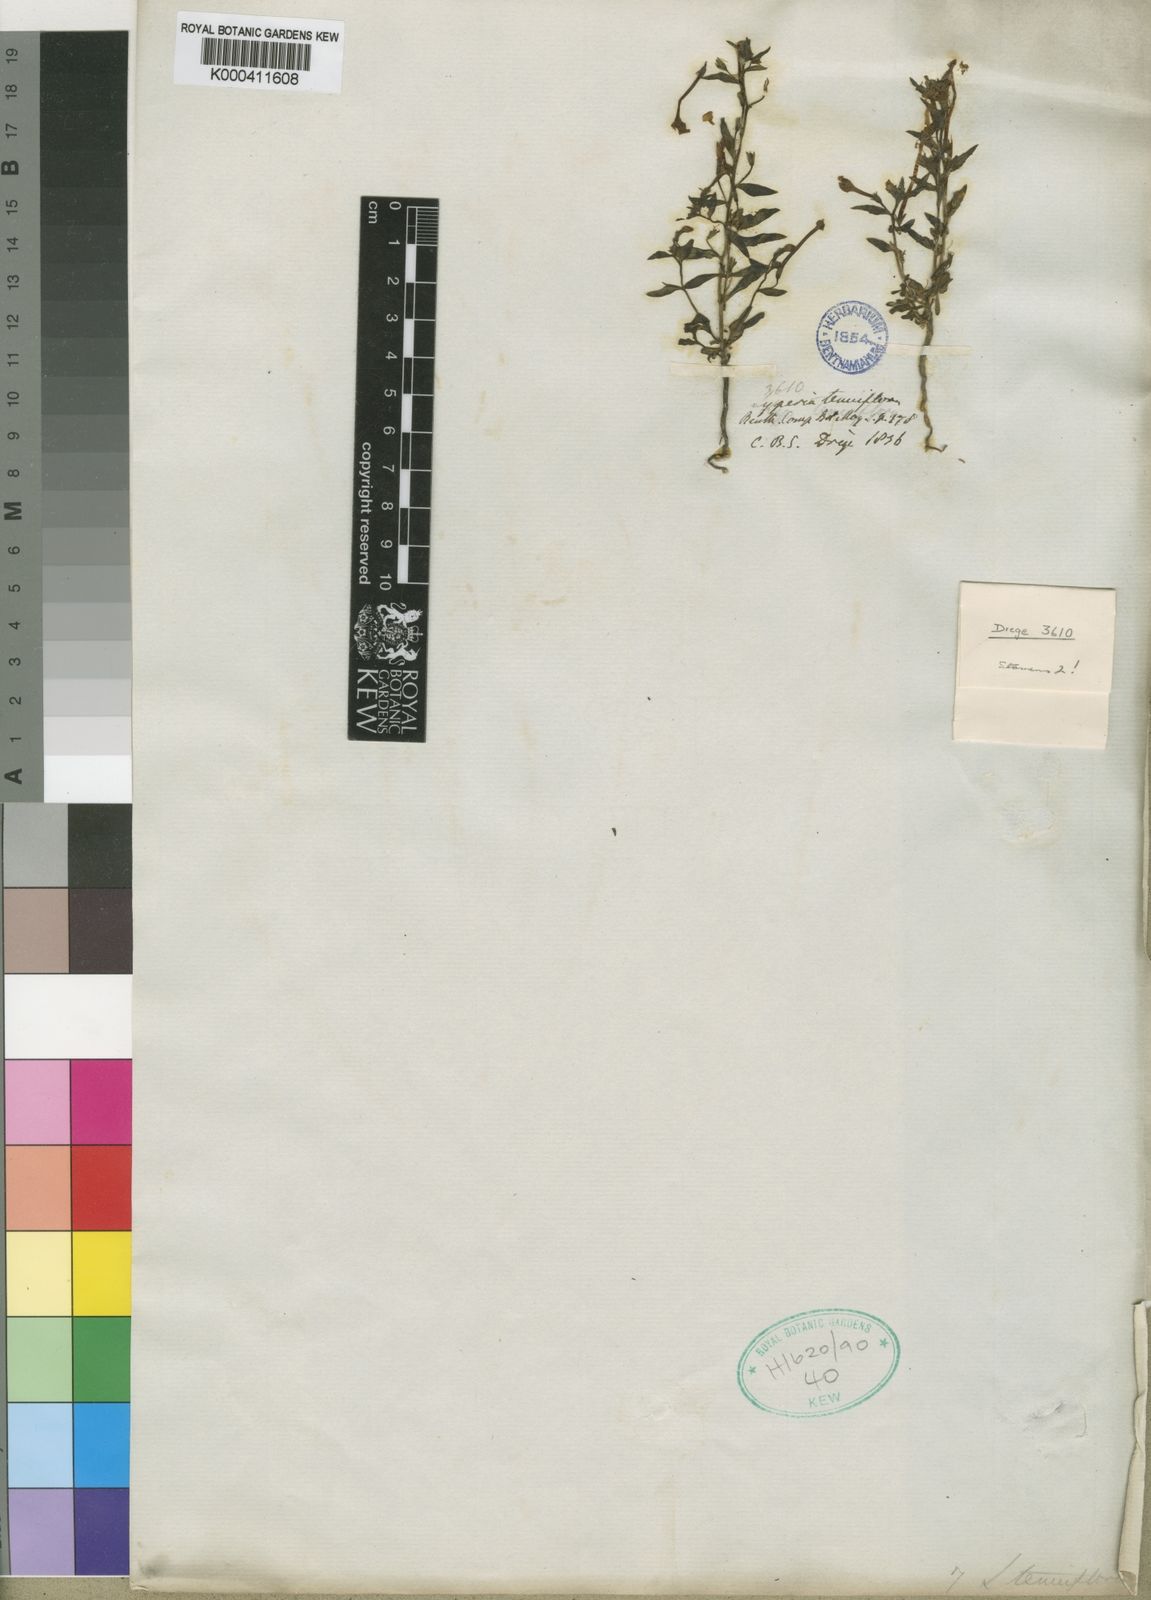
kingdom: Plantae
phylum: Tracheophyta
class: Magnoliopsida
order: Lamiales
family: Scrophulariaceae
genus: Lyperia
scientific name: Lyperia tenuiflora
